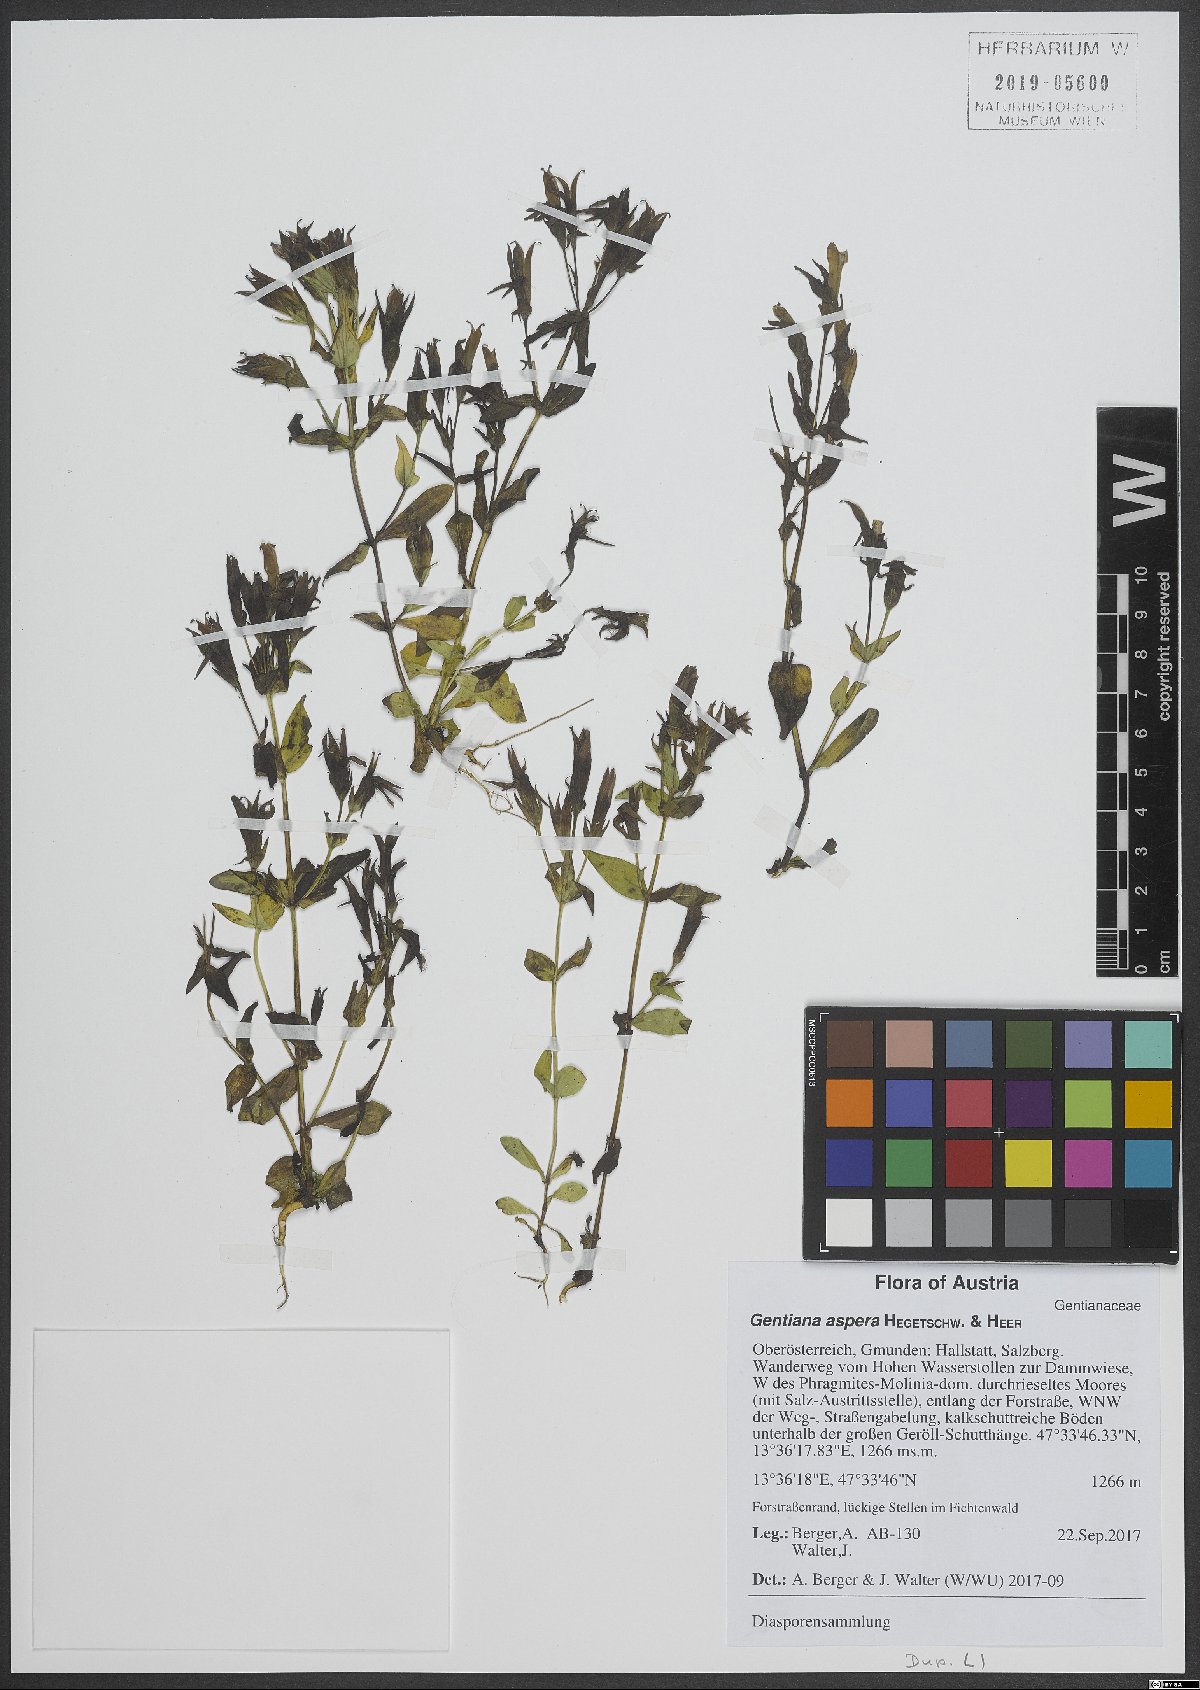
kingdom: Plantae
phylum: Tracheophyta
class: Magnoliopsida
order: Gentianales
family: Gentianaceae
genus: Gentianella
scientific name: Gentianella obtusifolia
